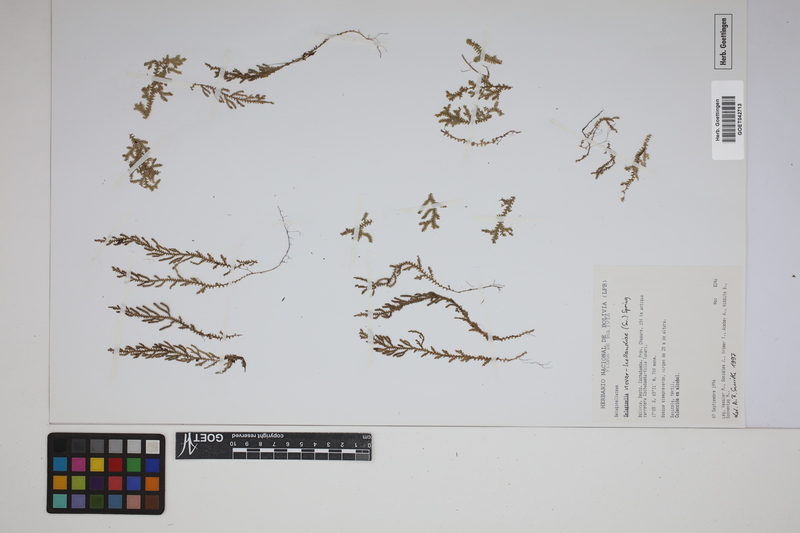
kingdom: Plantae
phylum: Tracheophyta
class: Lycopodiopsida
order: Selaginellales
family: Selaginellaceae
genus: Selaginella
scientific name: Selaginella novae-hollandiae
